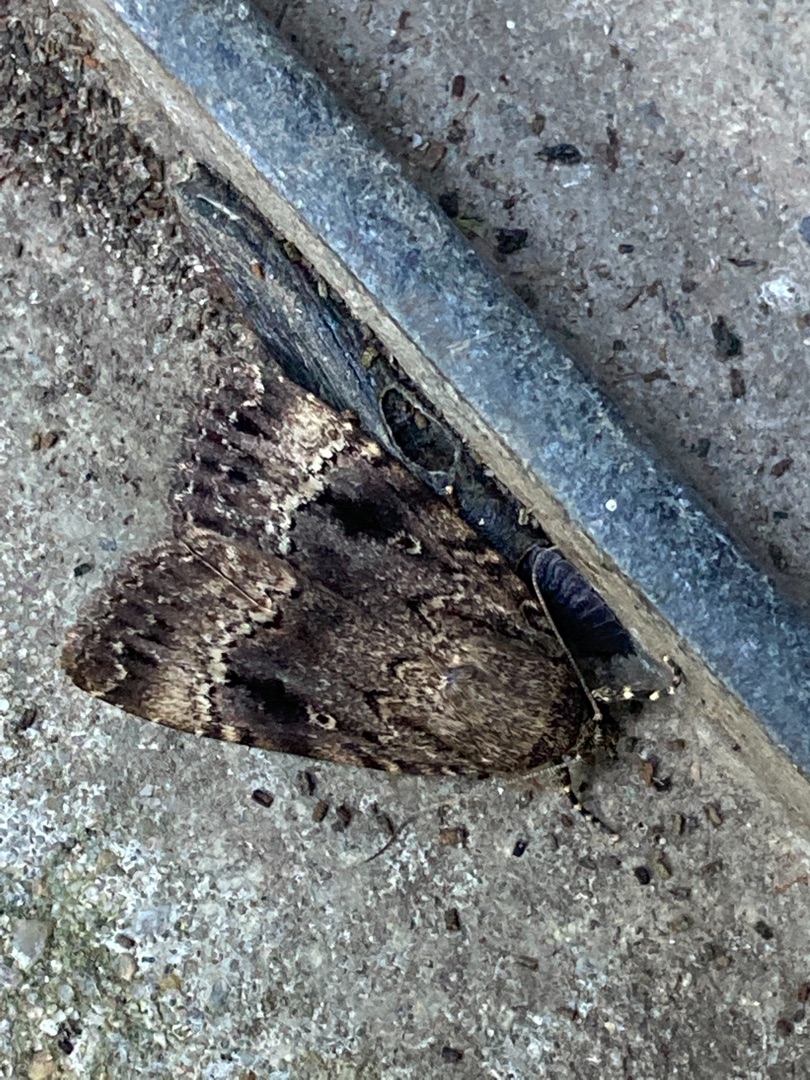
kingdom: Animalia
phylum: Arthropoda
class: Insecta
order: Lepidoptera
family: Noctuidae
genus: Amphipyra
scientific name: Amphipyra pyramidea
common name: Pyramideugle
